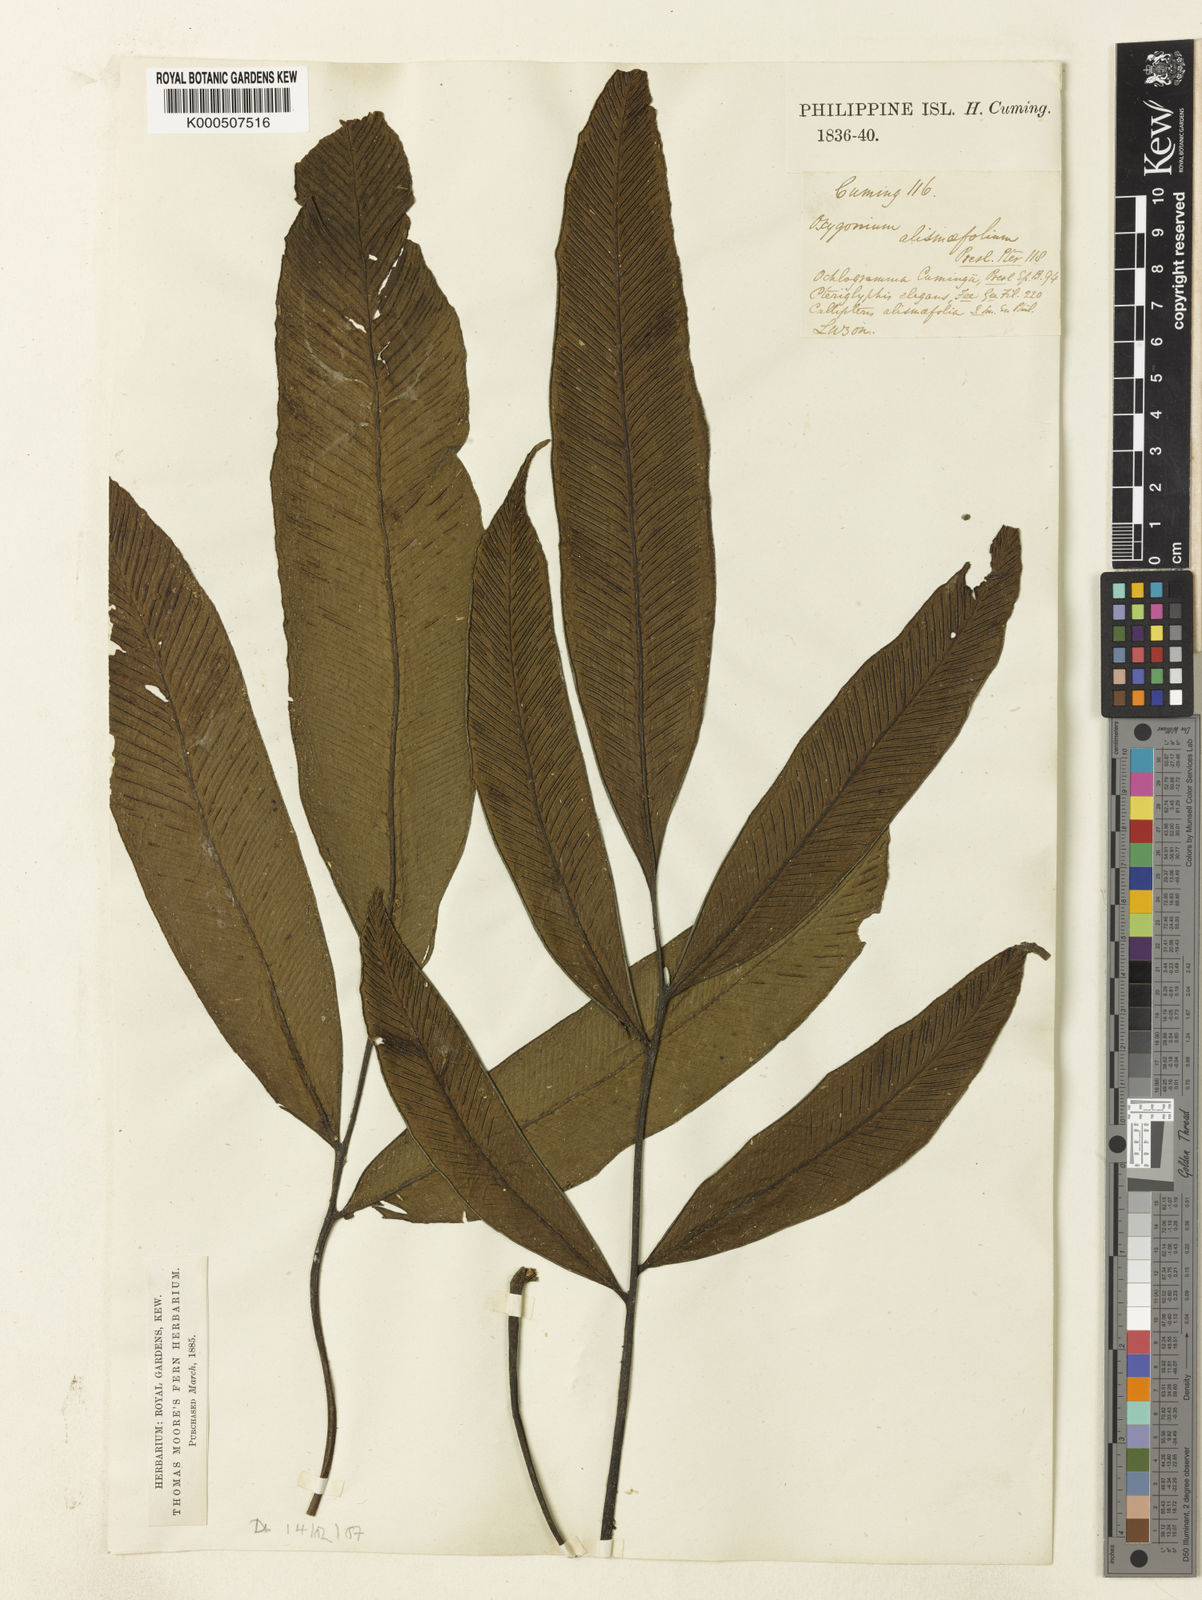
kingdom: Plantae
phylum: Tracheophyta
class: Polypodiopsida
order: Polypodiales
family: Athyriaceae
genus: Diplazium
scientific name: Diplazium cumingii
